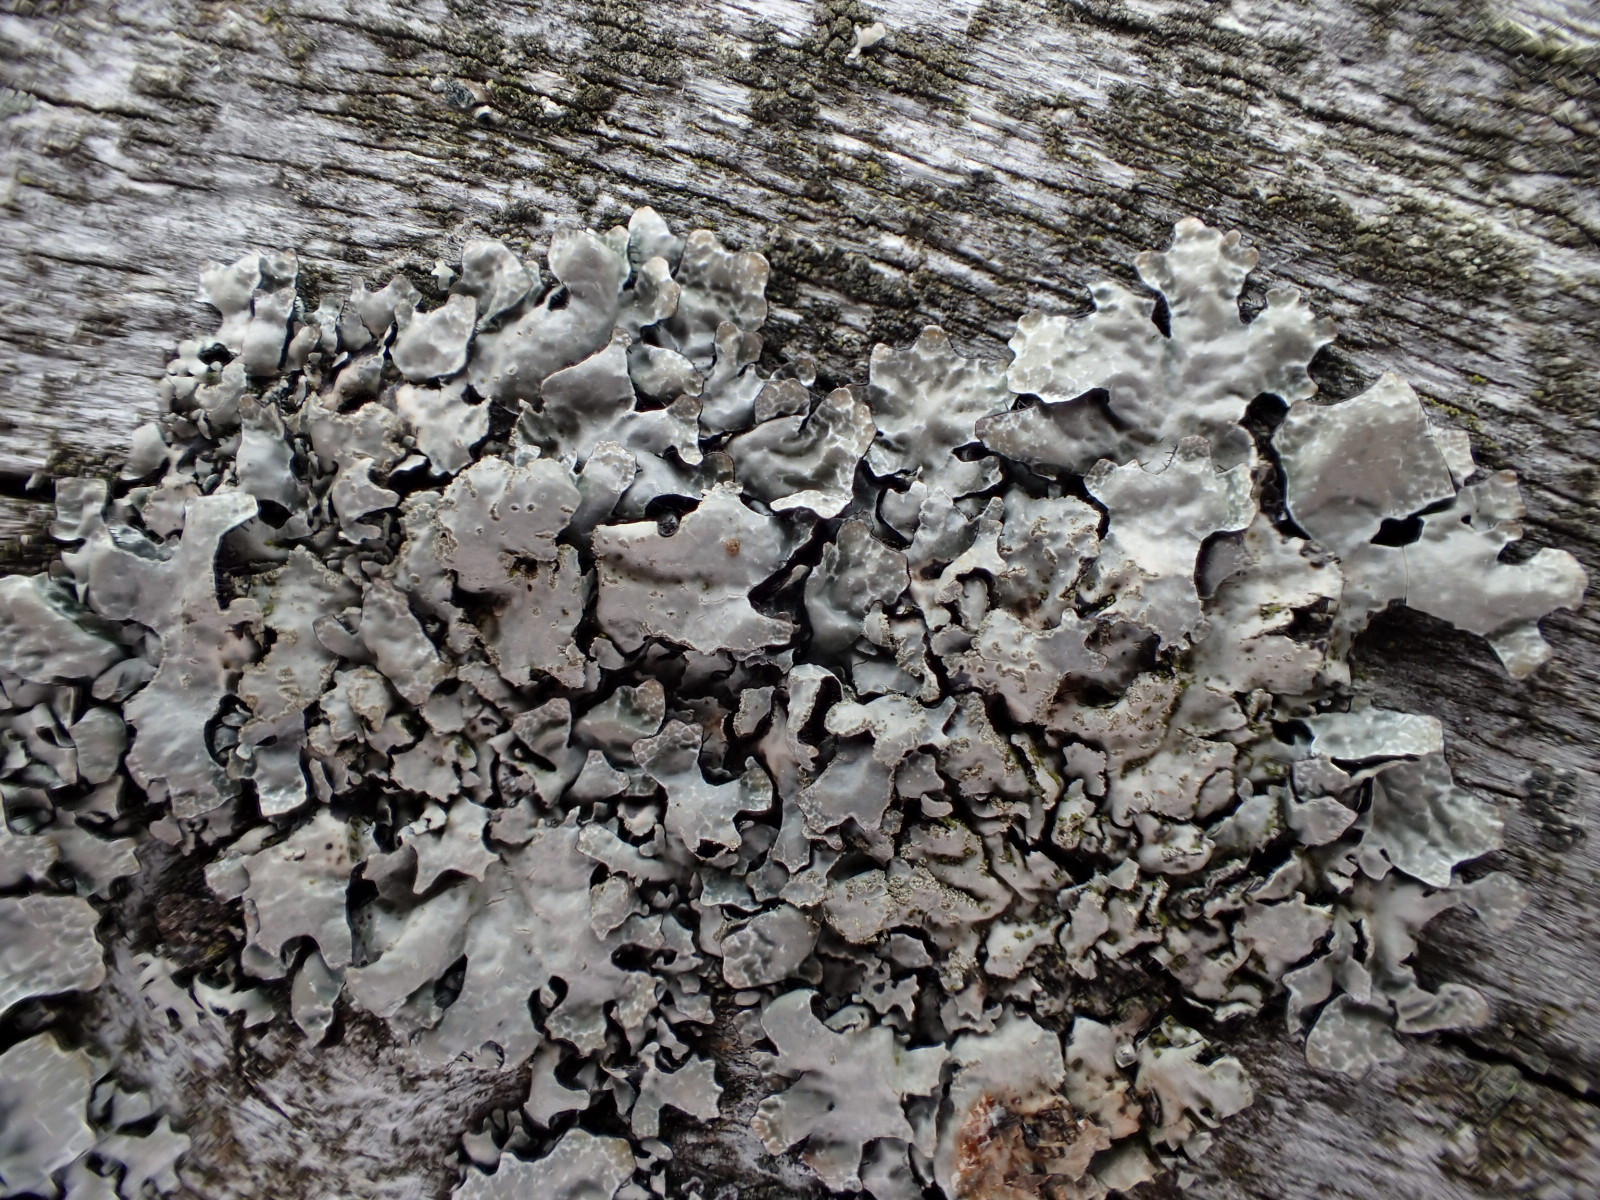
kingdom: Fungi
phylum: Ascomycota
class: Lecanoromycetes
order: Lecanorales
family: Parmeliaceae
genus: Parmelia
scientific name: Parmelia sulcata
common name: rynket skållav
